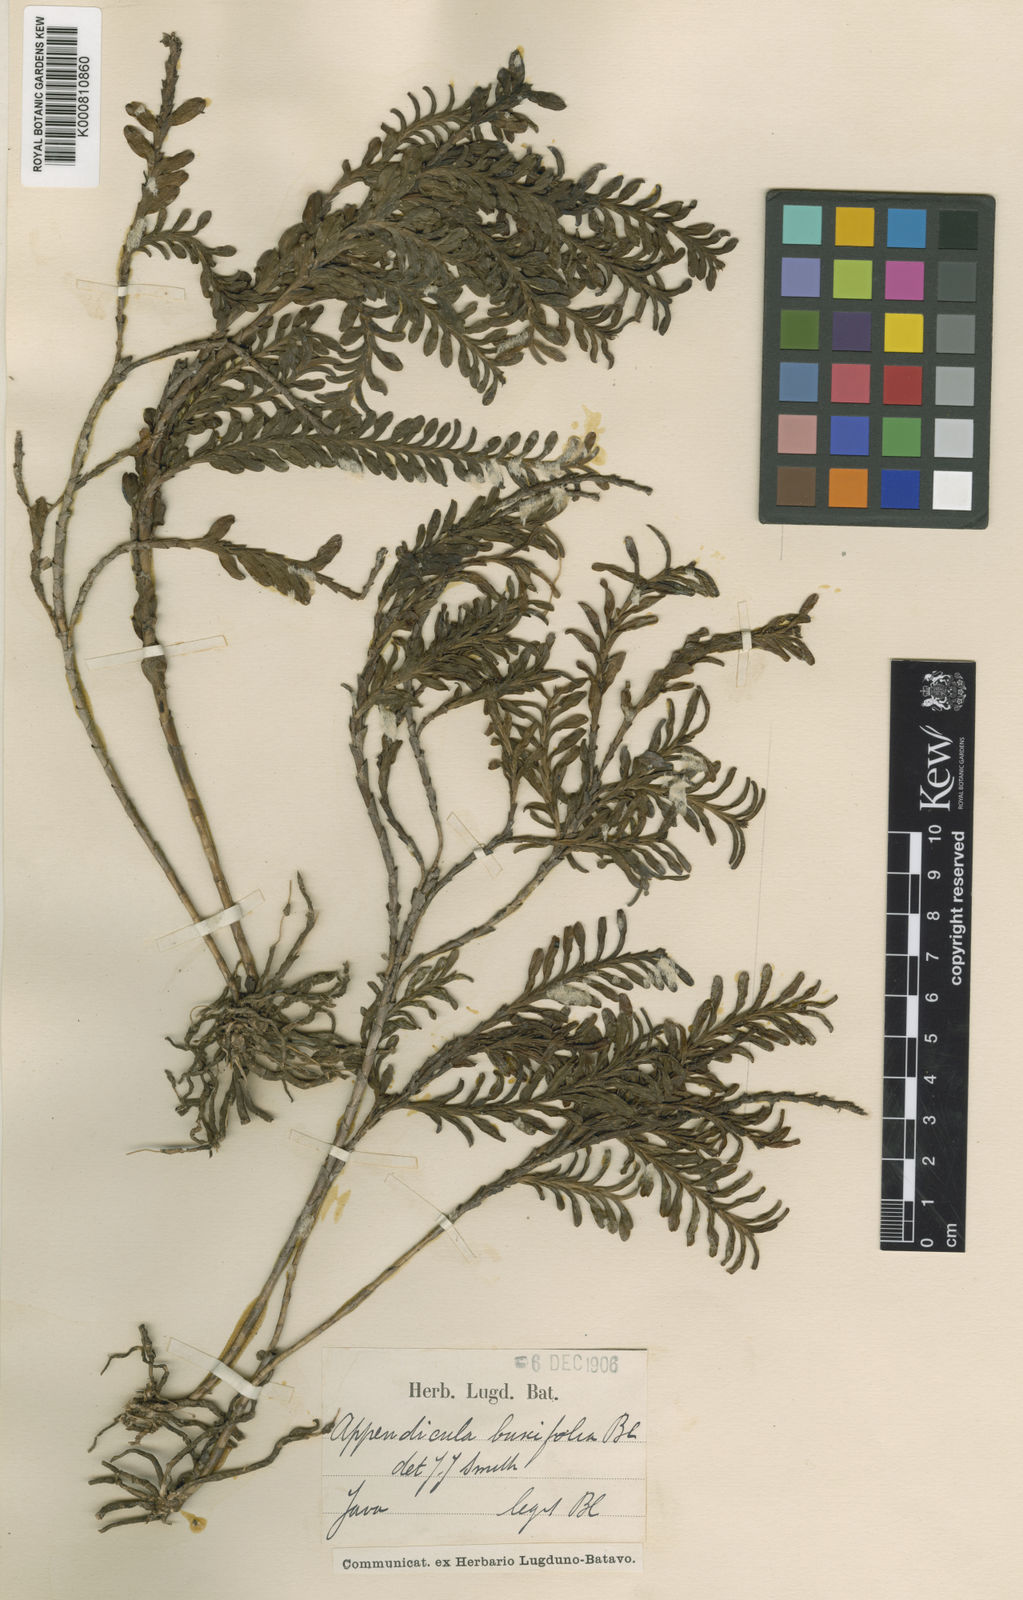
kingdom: Plantae
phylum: Tracheophyta
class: Liliopsida
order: Asparagales
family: Orchidaceae
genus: Appendicula
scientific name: Appendicula brevimentum
